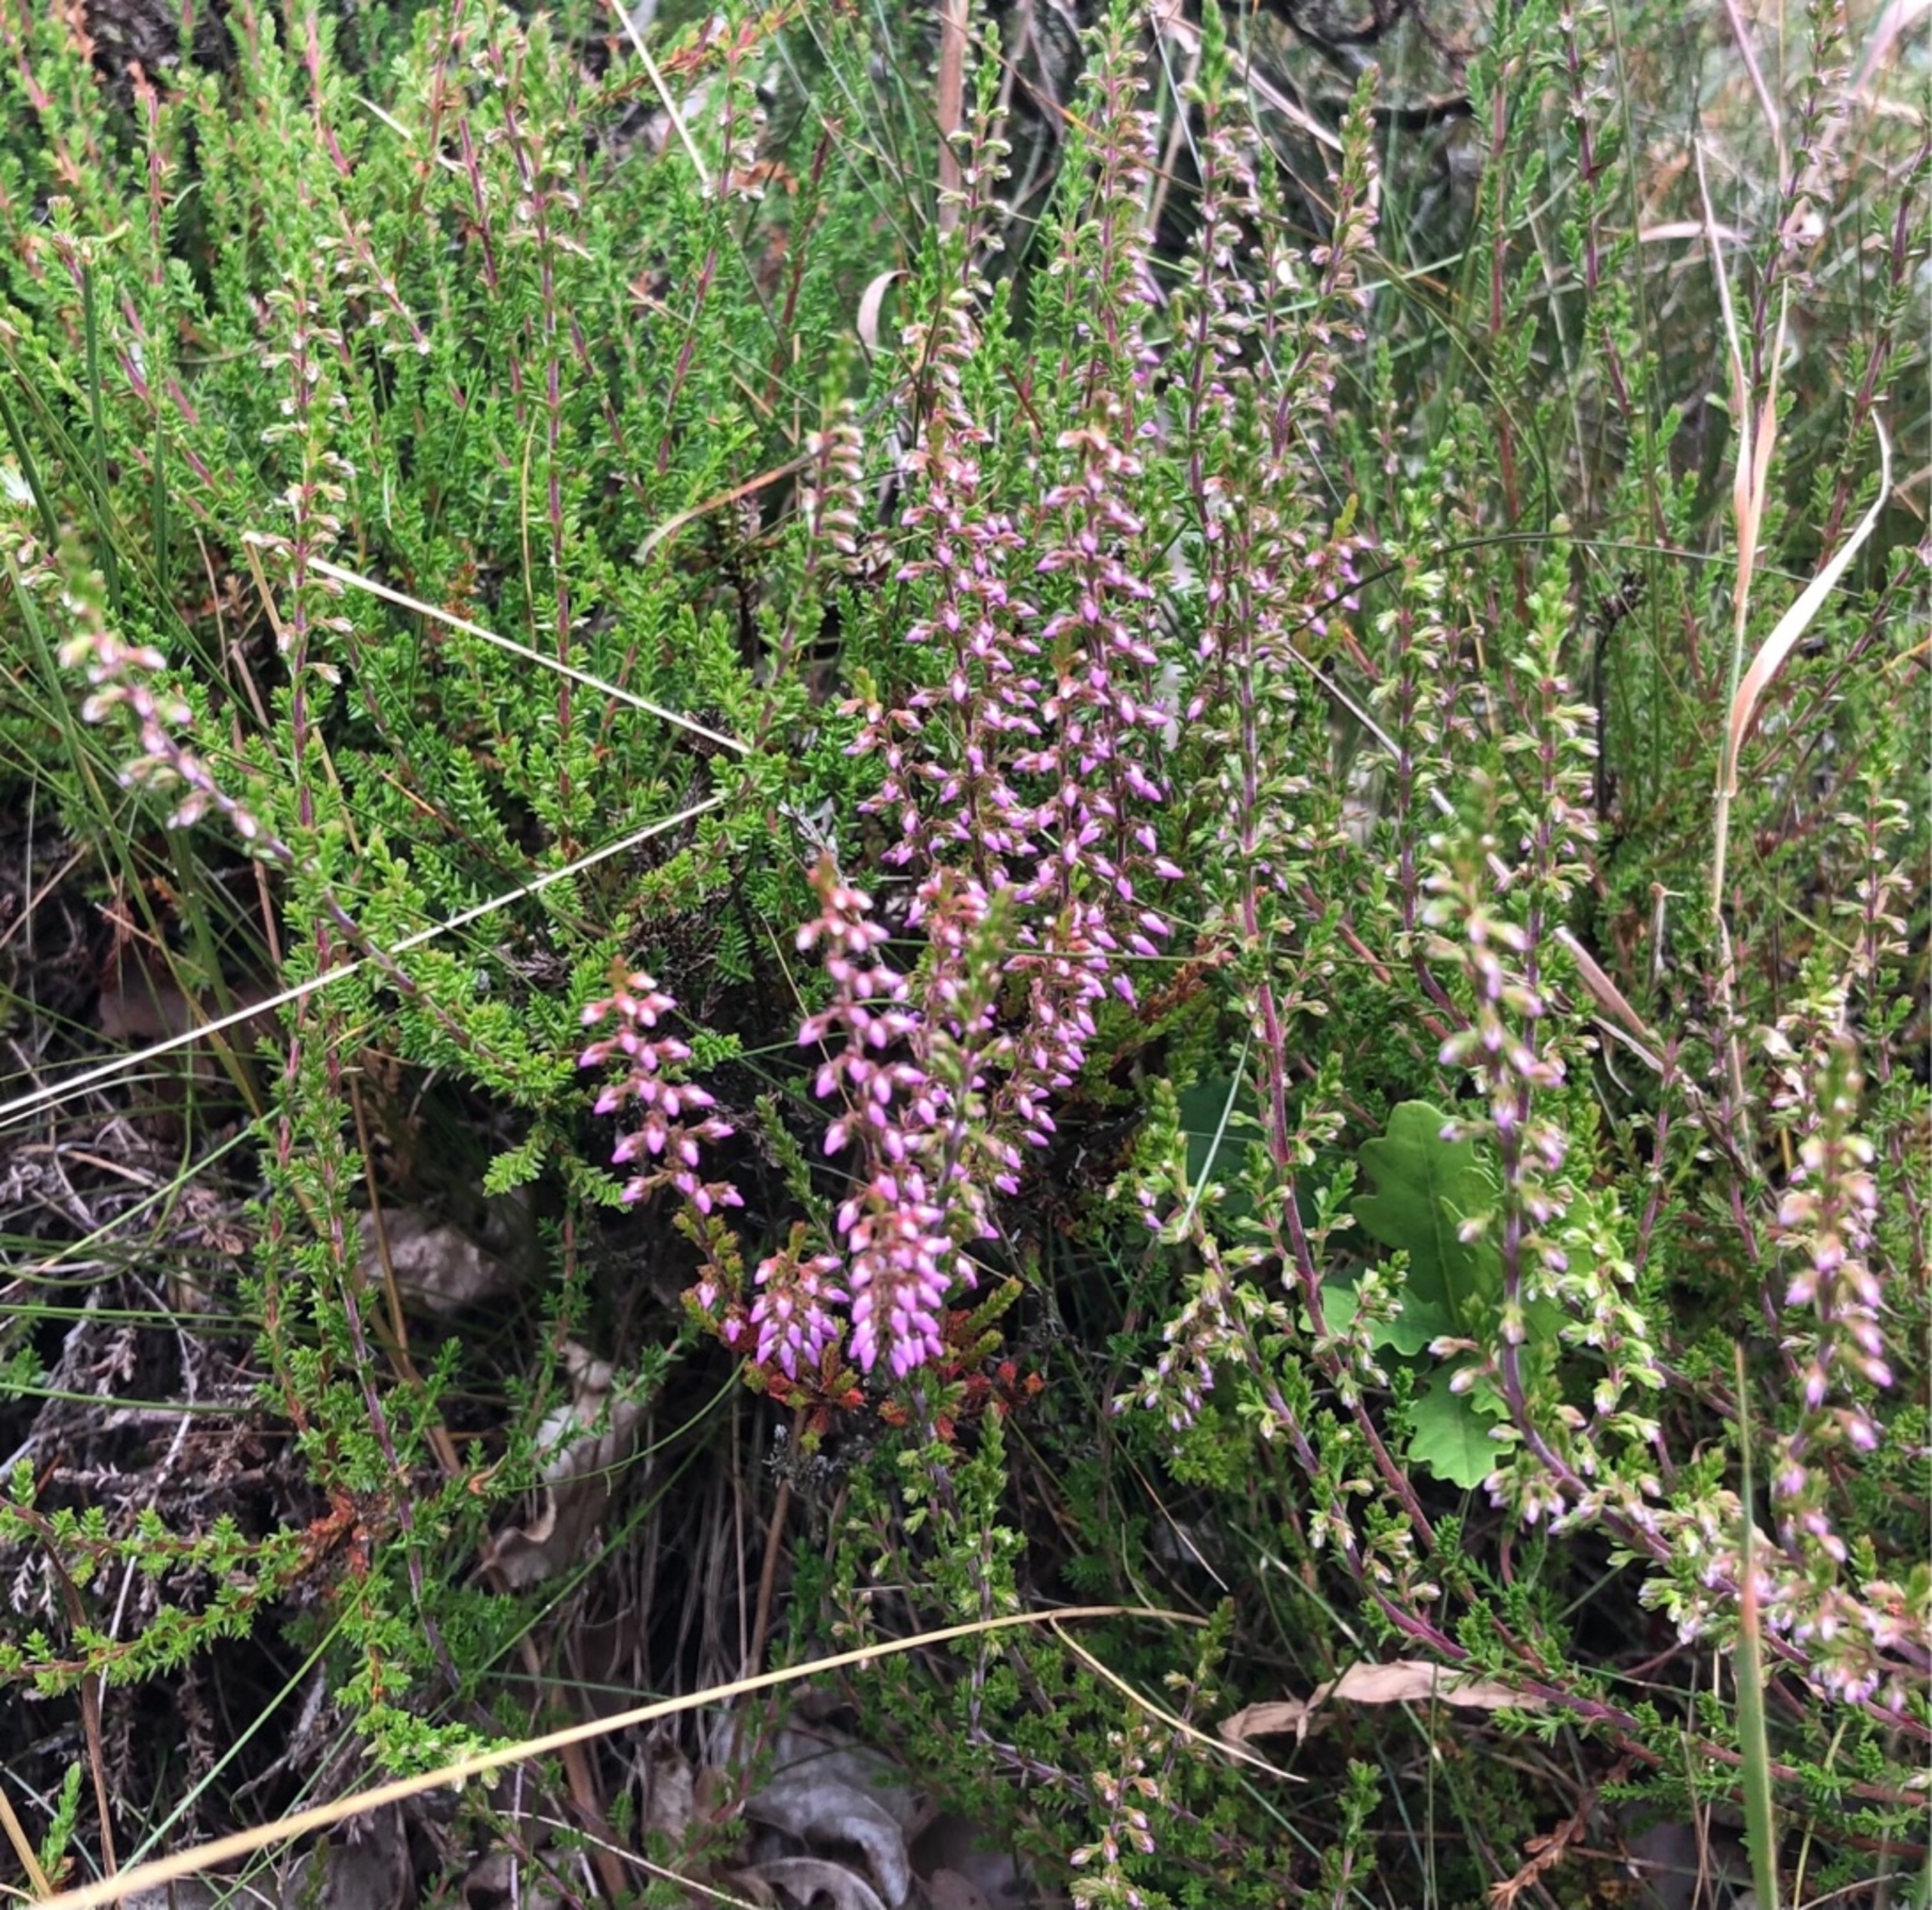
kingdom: Plantae
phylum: Tracheophyta
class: Magnoliopsida
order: Ericales
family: Ericaceae
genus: Calluna
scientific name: Calluna vulgaris
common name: Hedelyng
